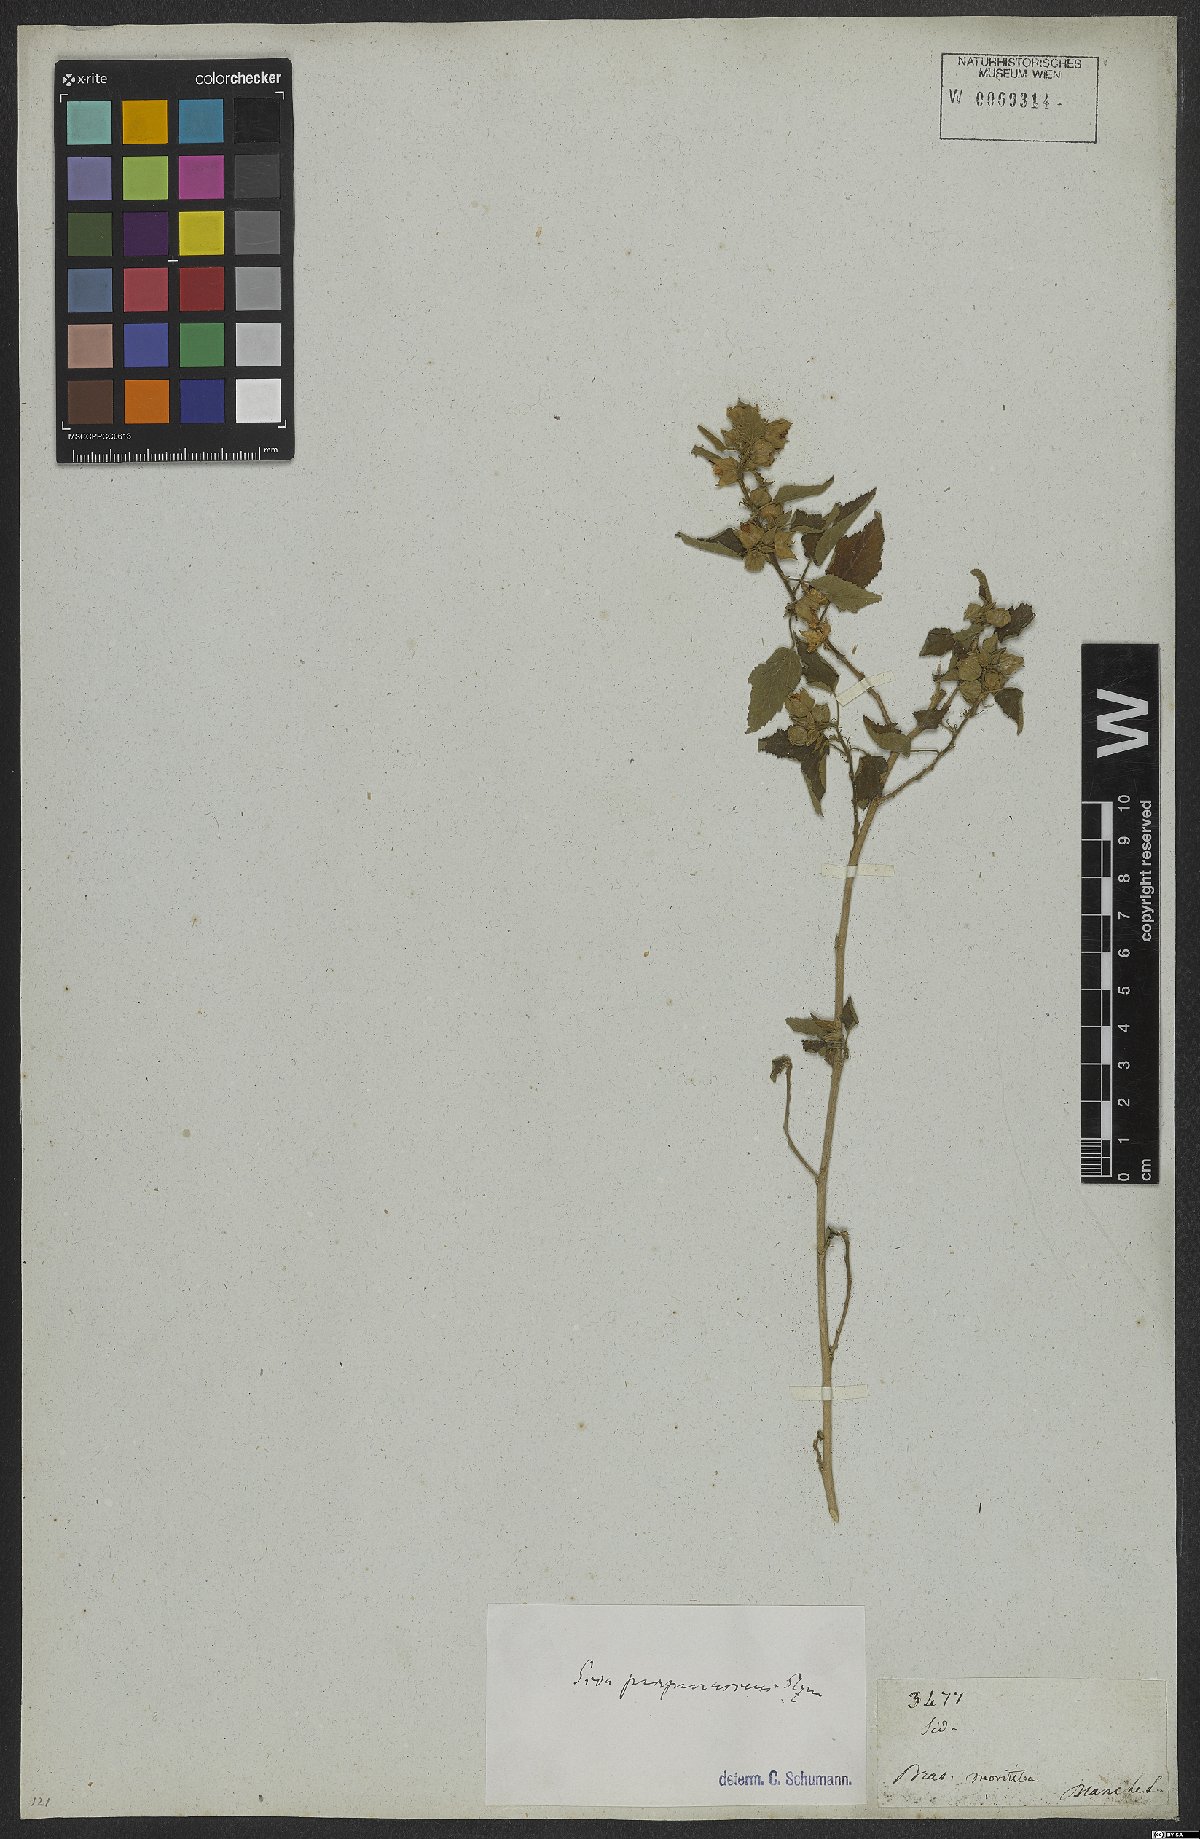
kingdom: Plantae
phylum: Tracheophyta
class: Magnoliopsida
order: Malvales
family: Malvaceae
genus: Bakeridesia
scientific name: Bakeridesia esculenta
